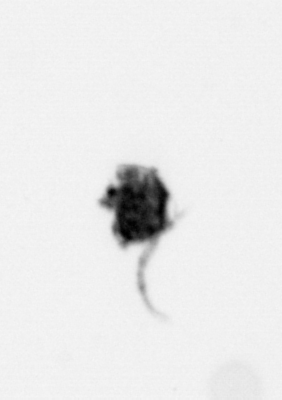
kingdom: Animalia
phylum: Arthropoda
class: Copepoda
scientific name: Copepoda
